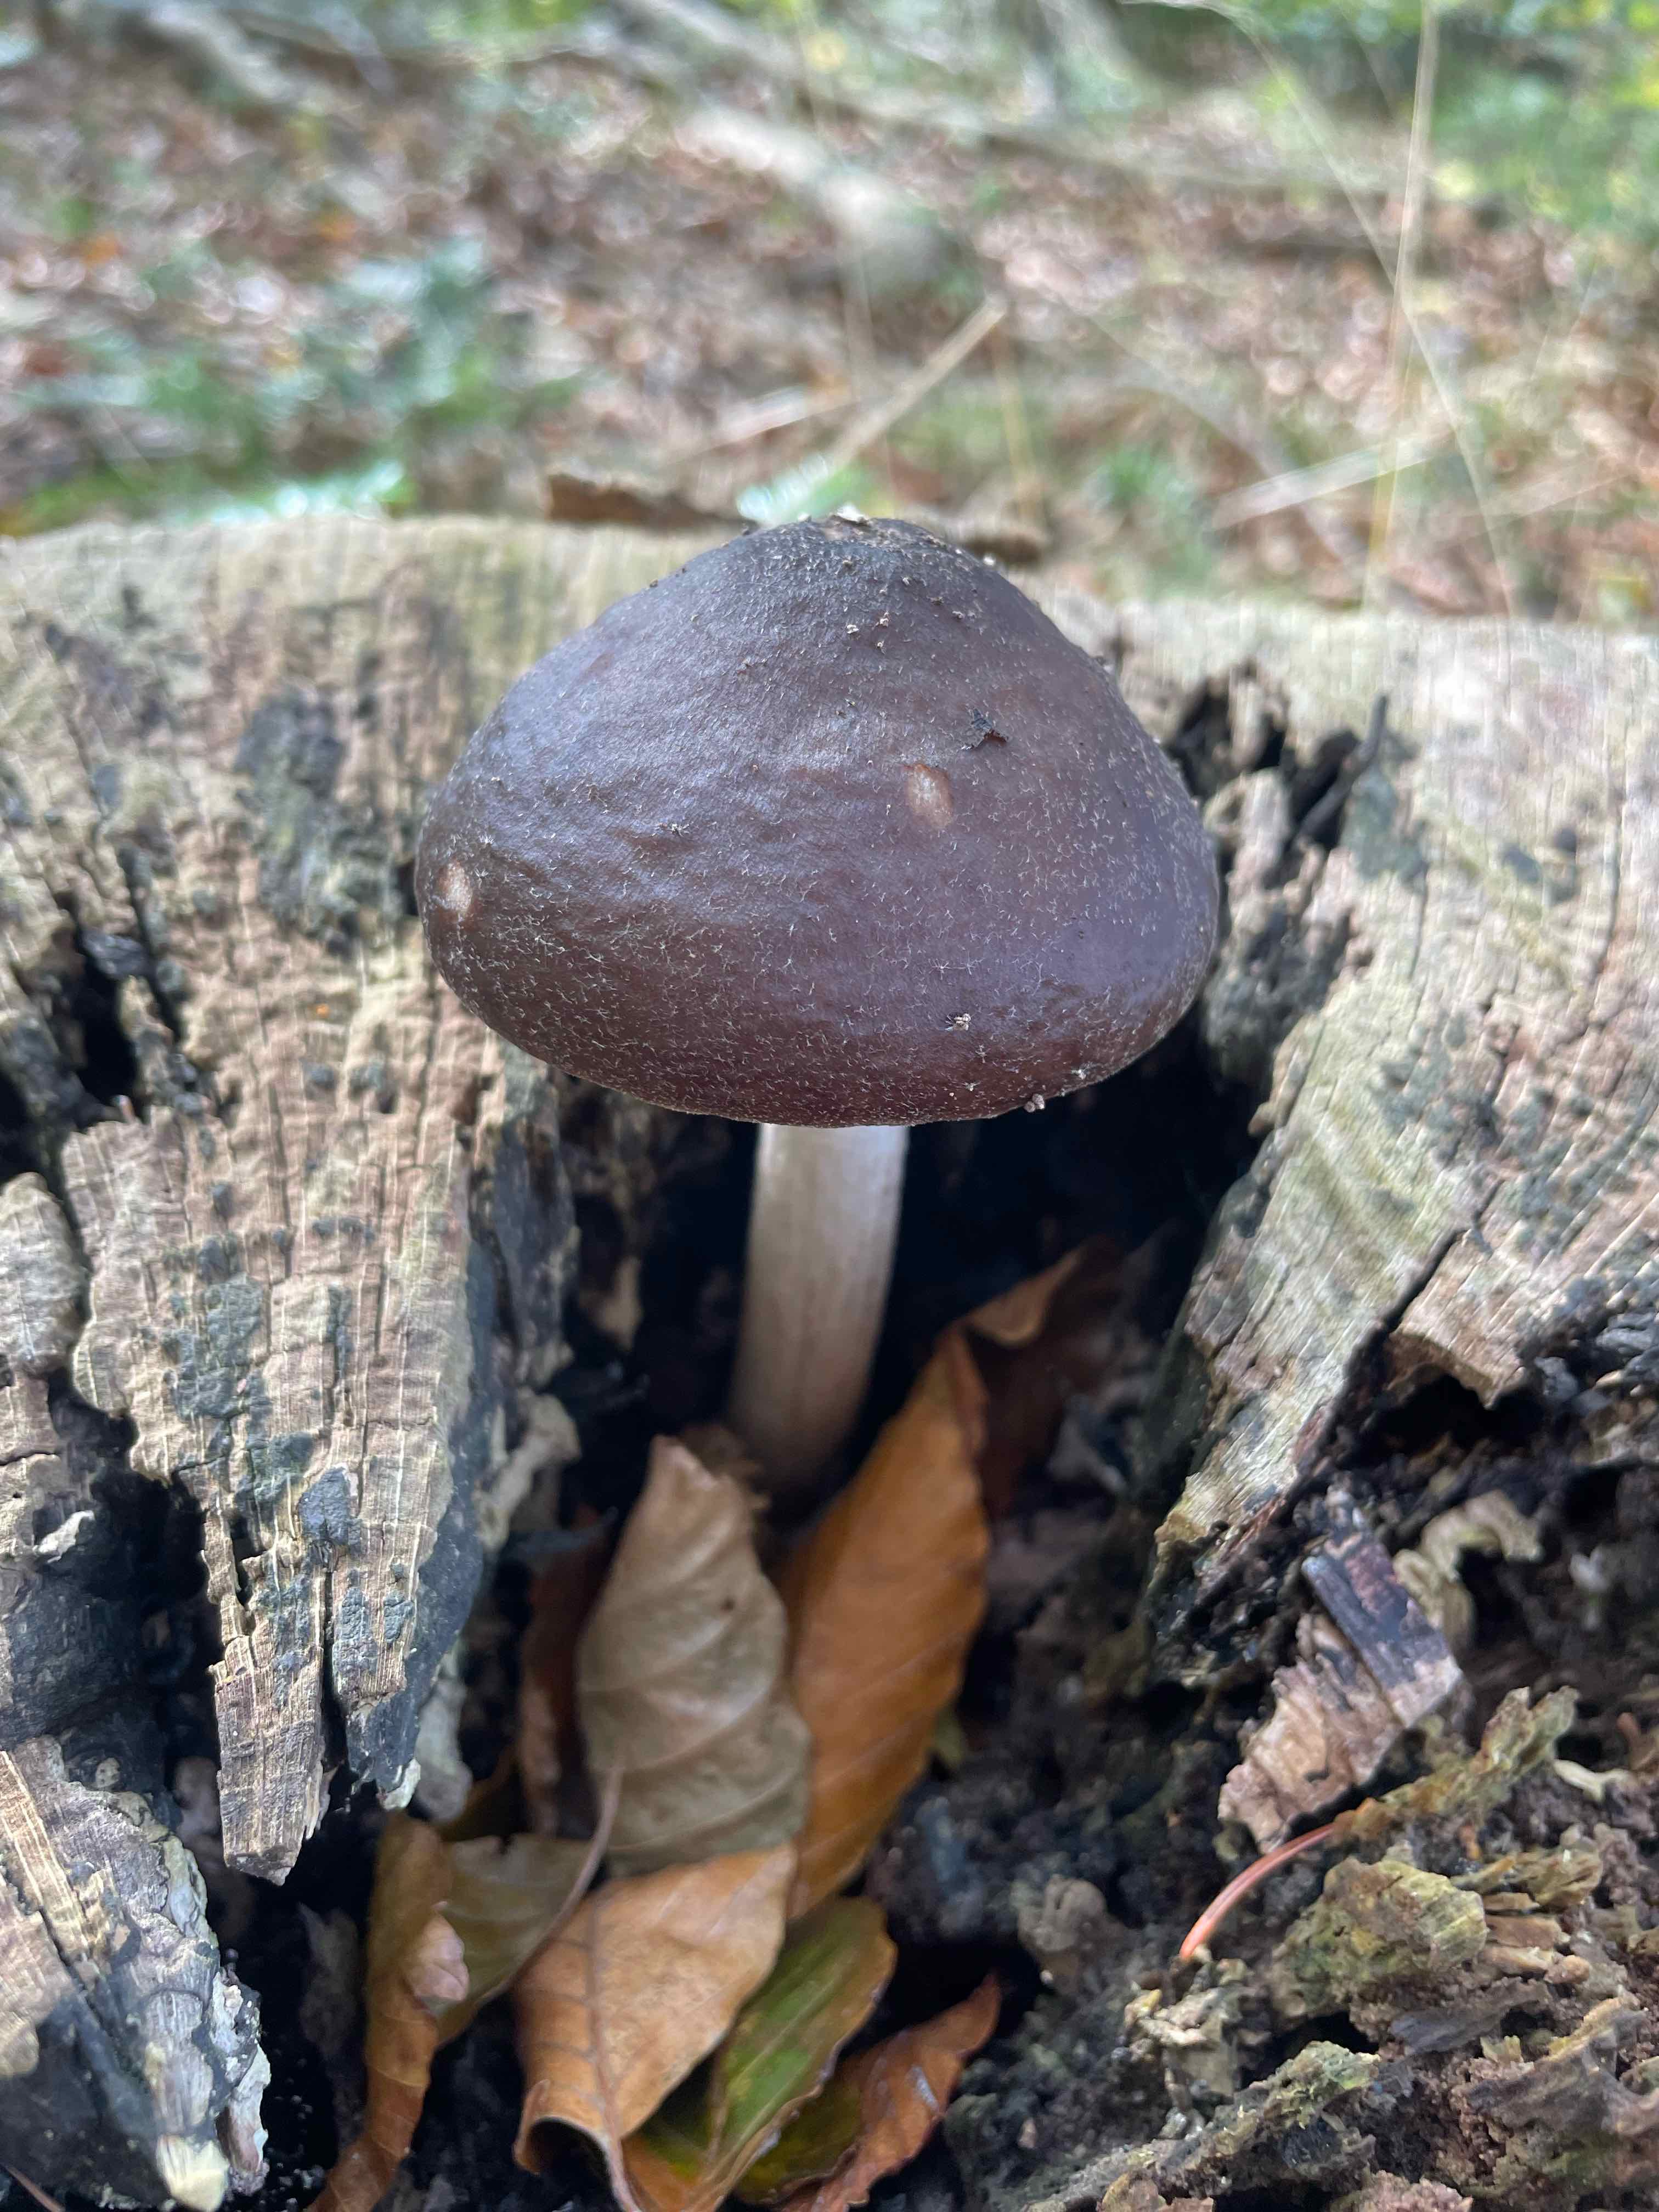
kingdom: Fungi
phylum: Basidiomycota
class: Agaricomycetes
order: Agaricales
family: Pluteaceae
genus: Pluteus
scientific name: Pluteus cervinus
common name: sodfarvet skærmhat
